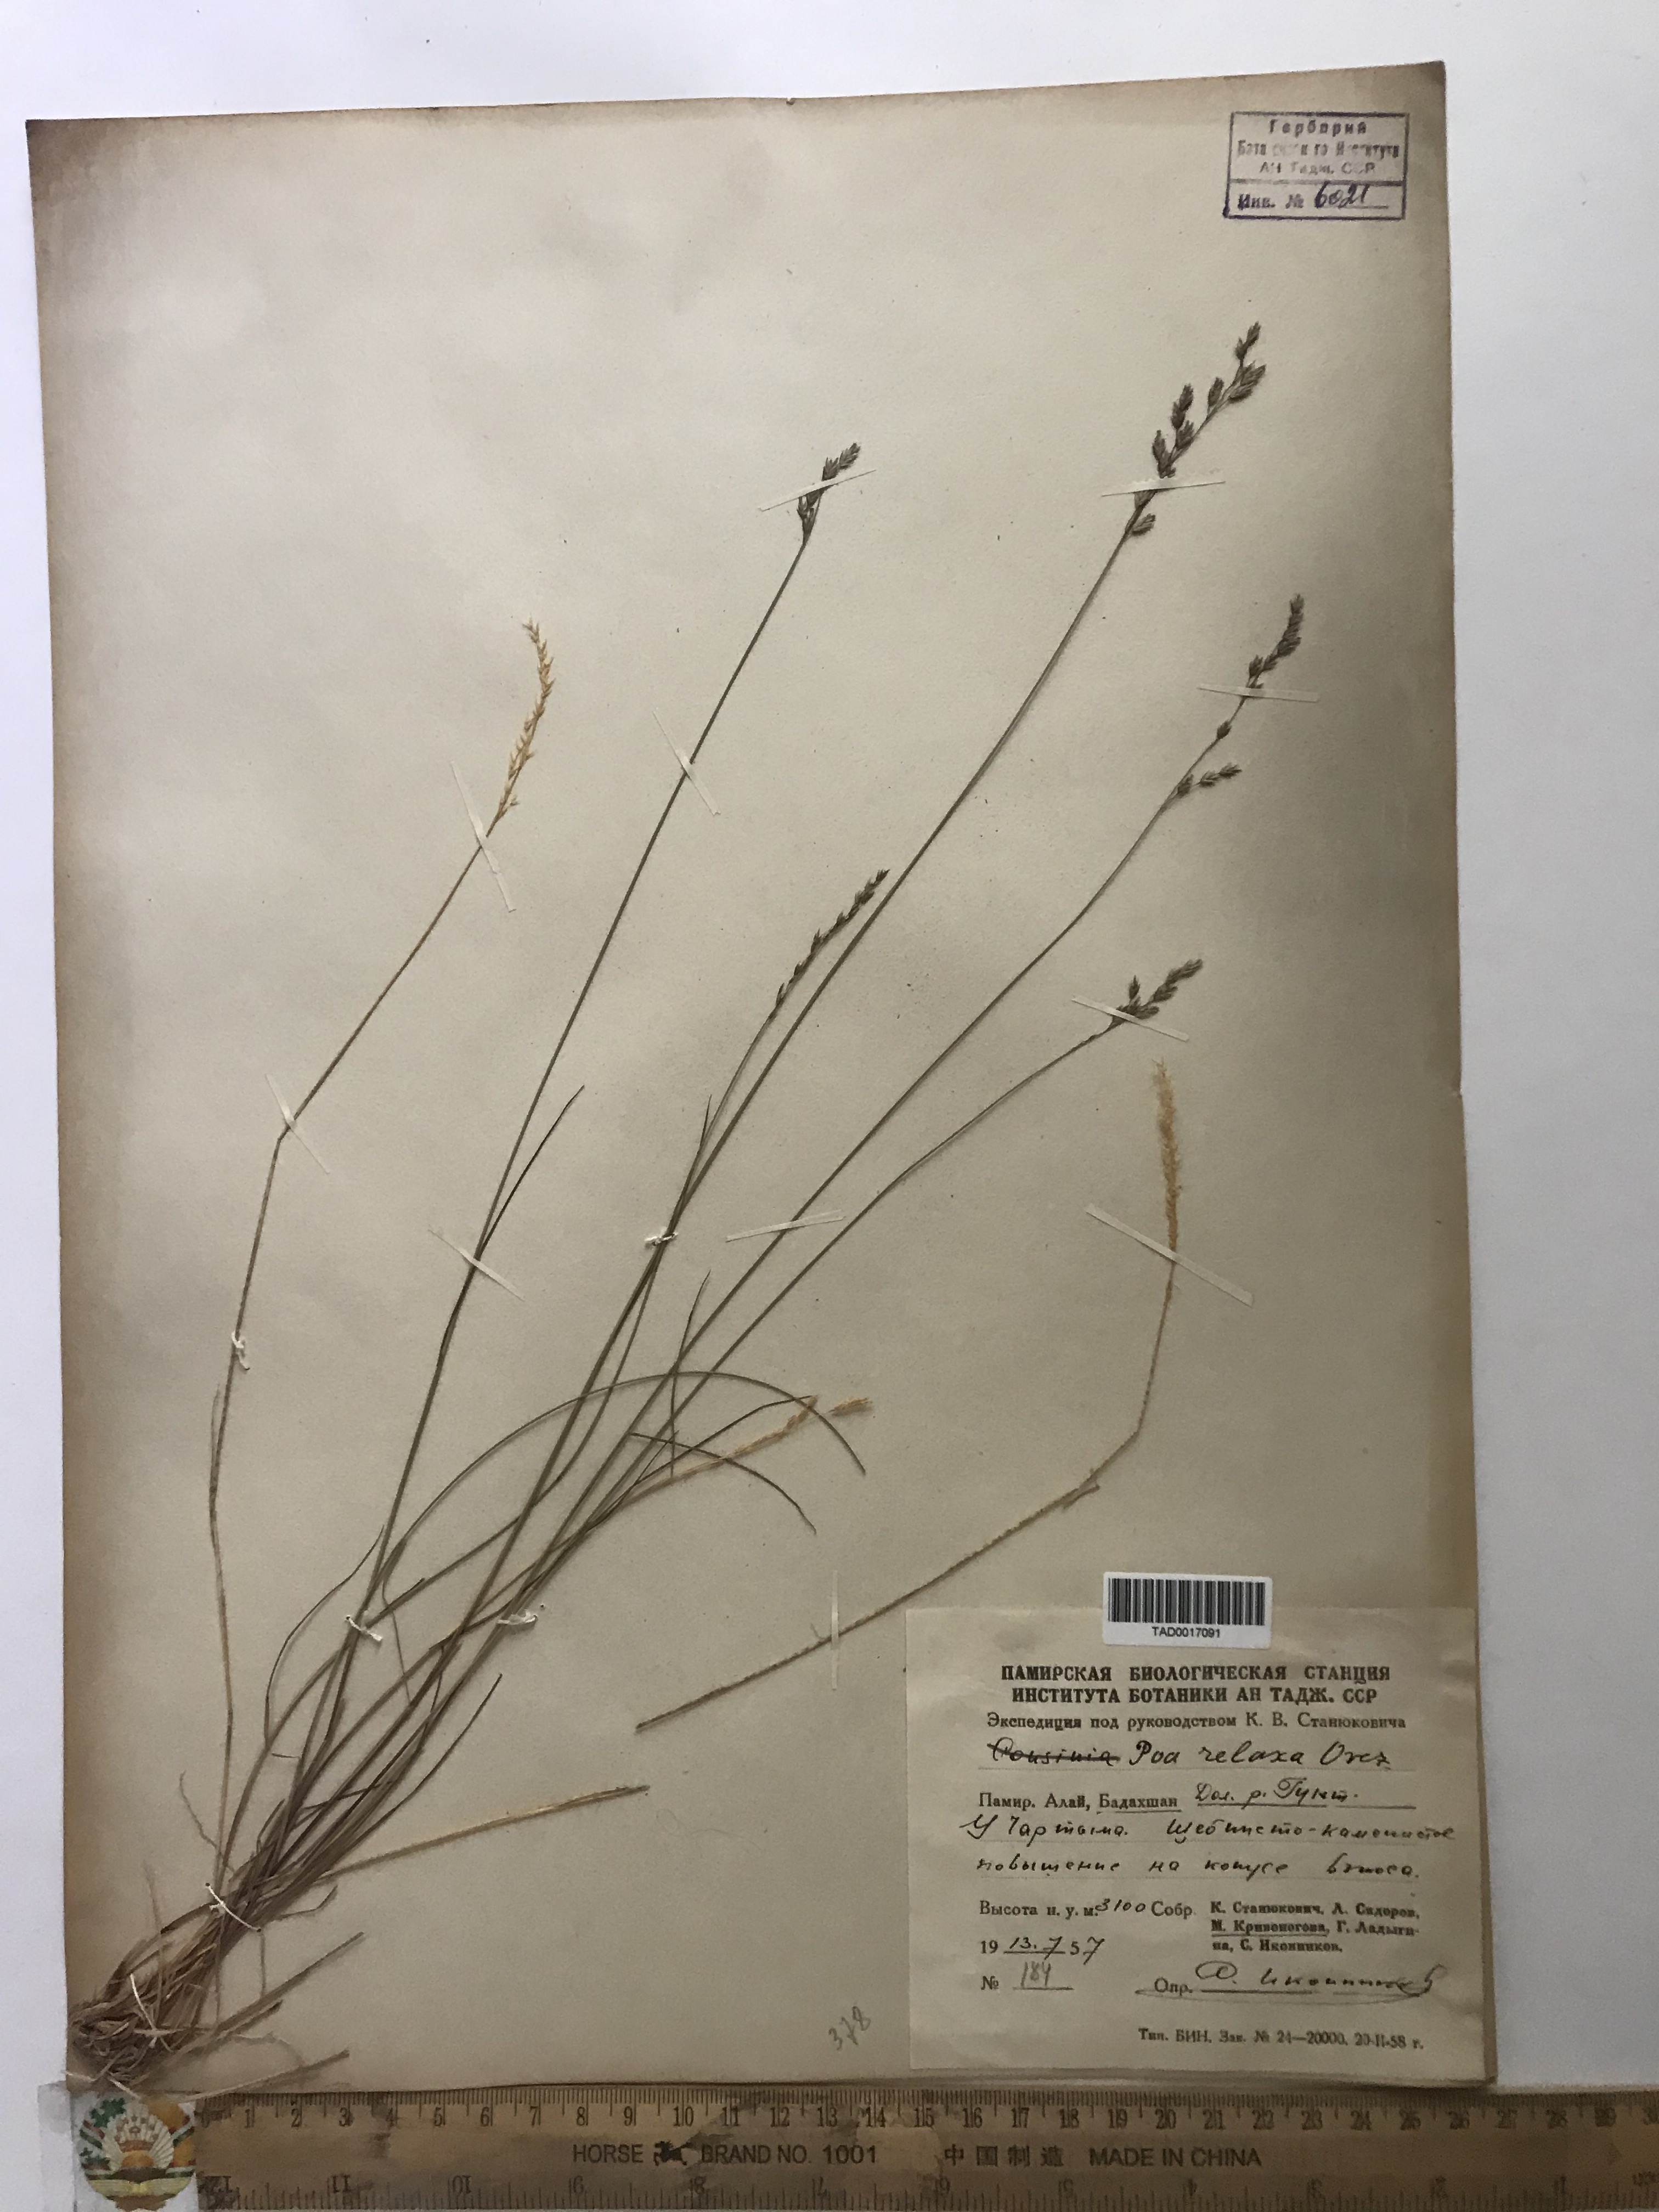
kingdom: Plantae
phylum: Tracheophyta
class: Liliopsida
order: Poales
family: Poaceae
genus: Poa
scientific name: Poa versicolor
